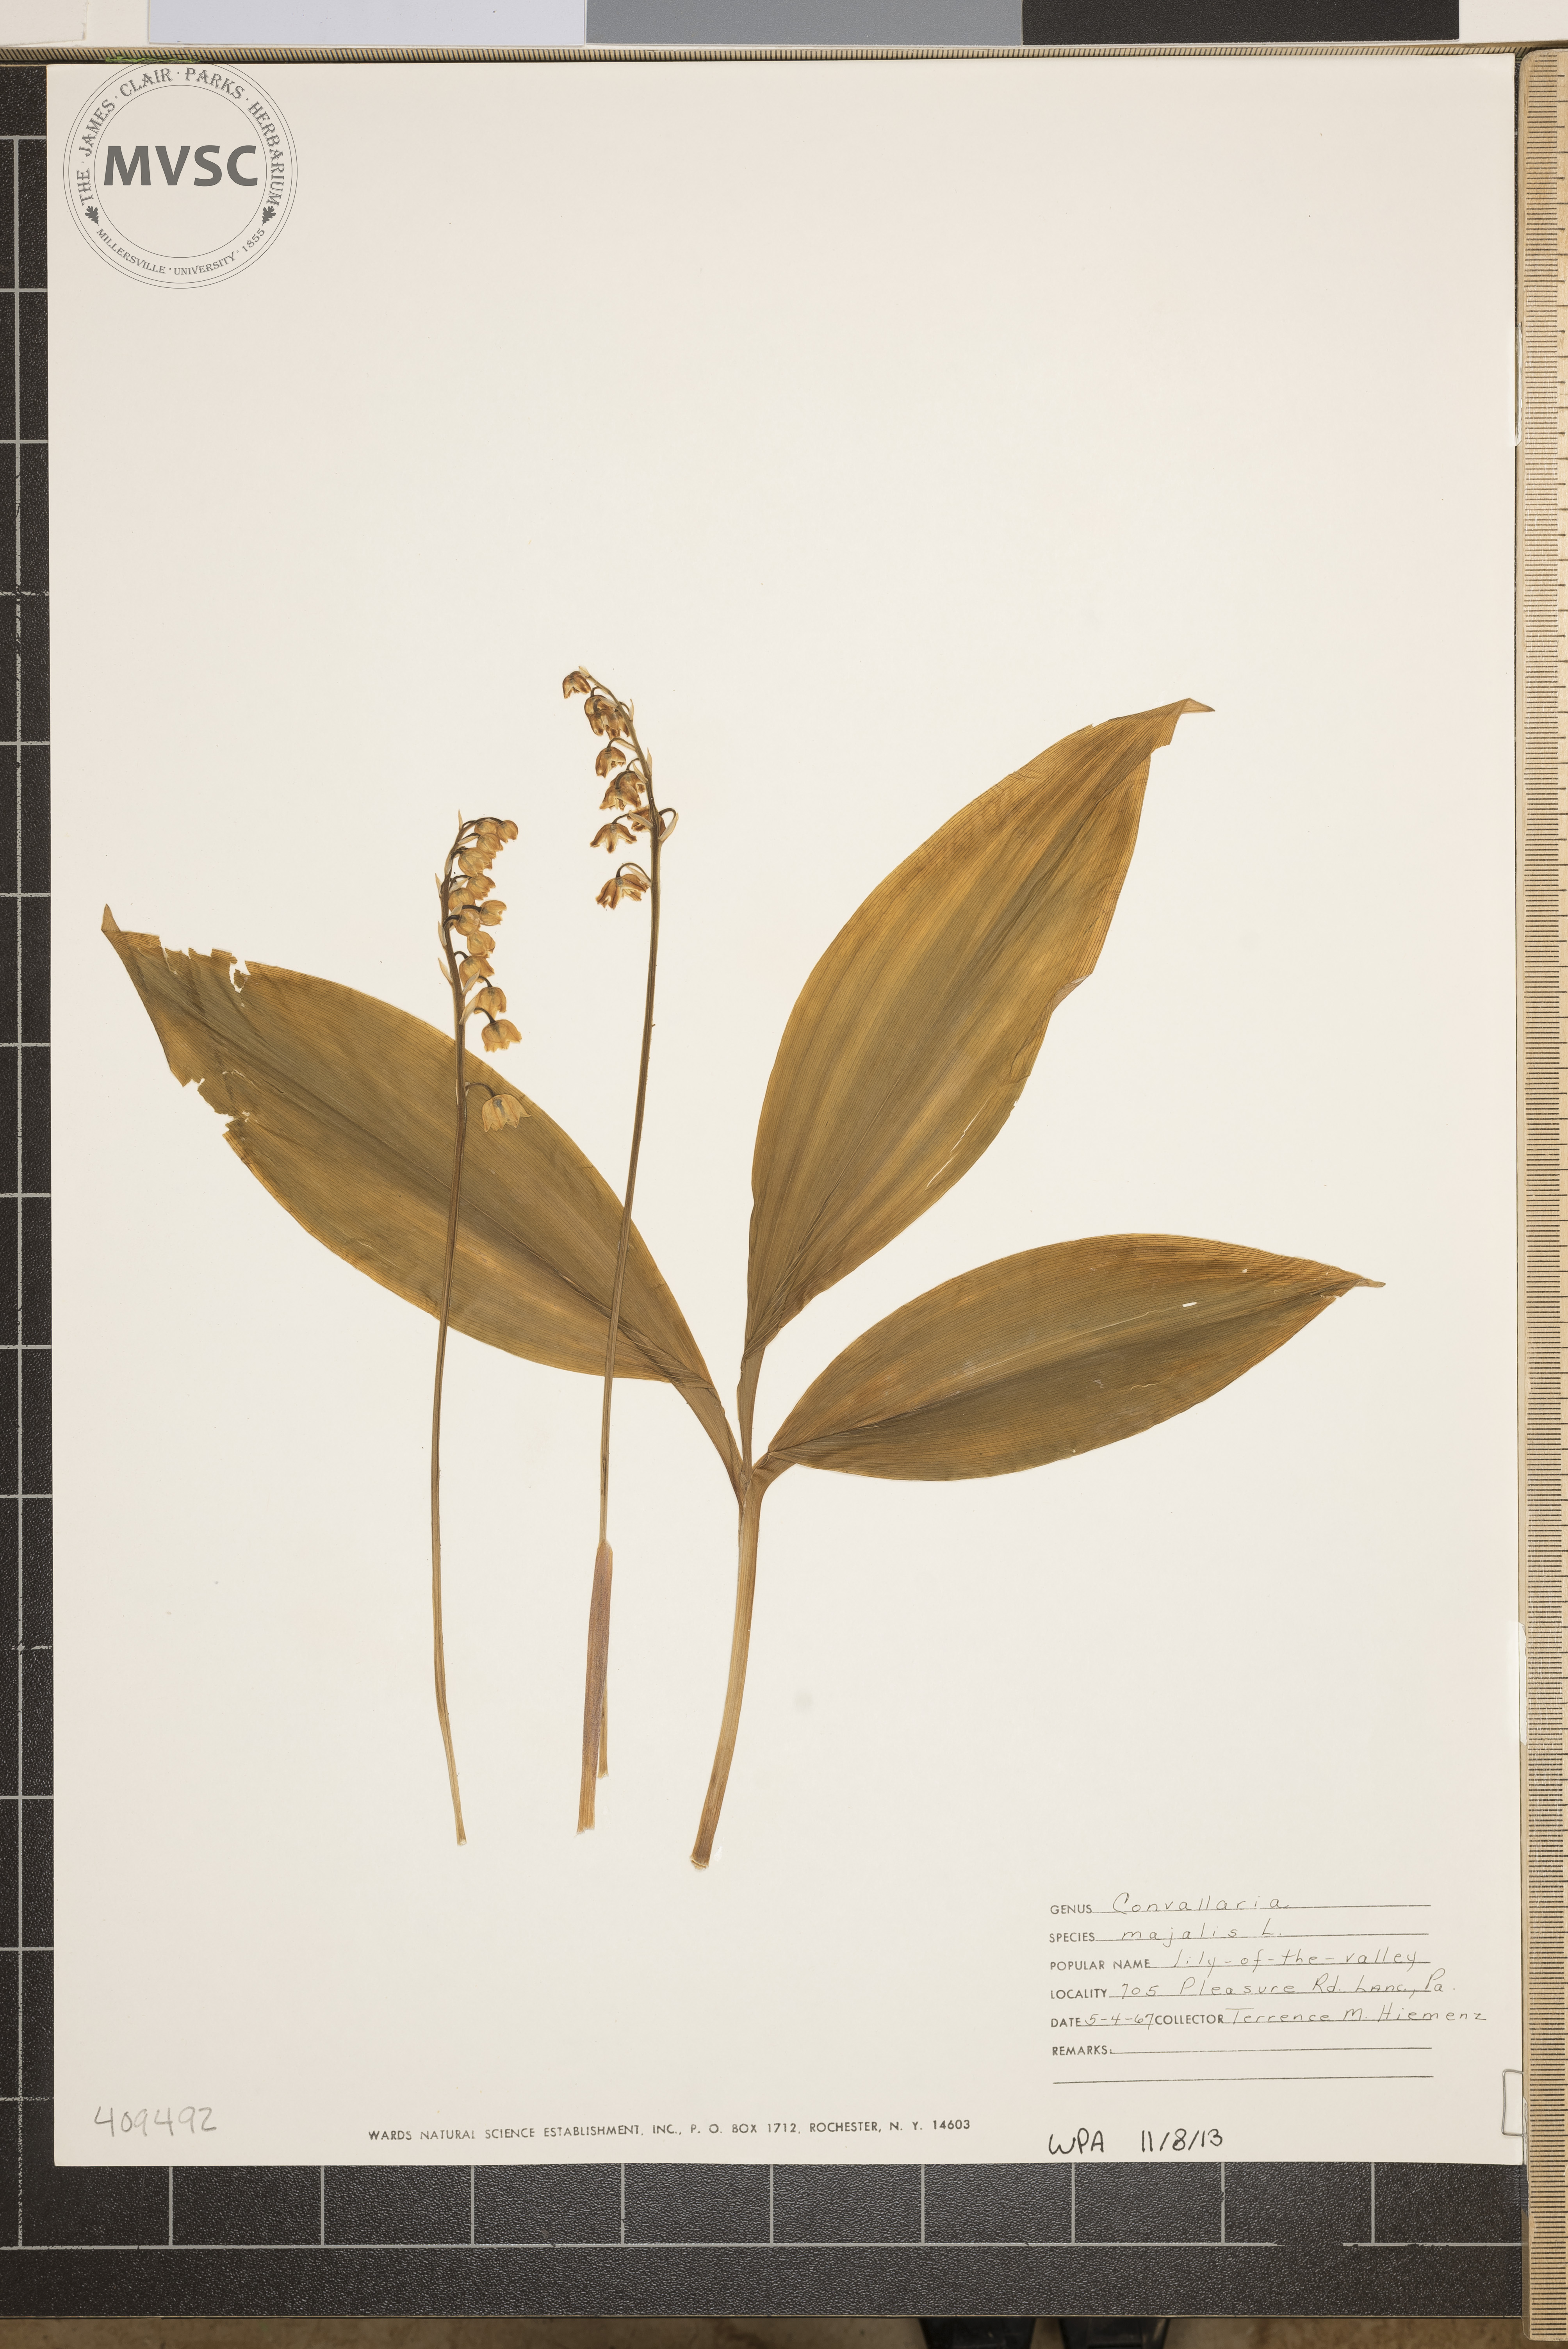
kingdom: Plantae
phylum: Tracheophyta
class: Liliopsida
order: Asparagales
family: Asparagaceae
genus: Convallaria
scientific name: Convallaria majalis
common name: Lily-of-the-valley
